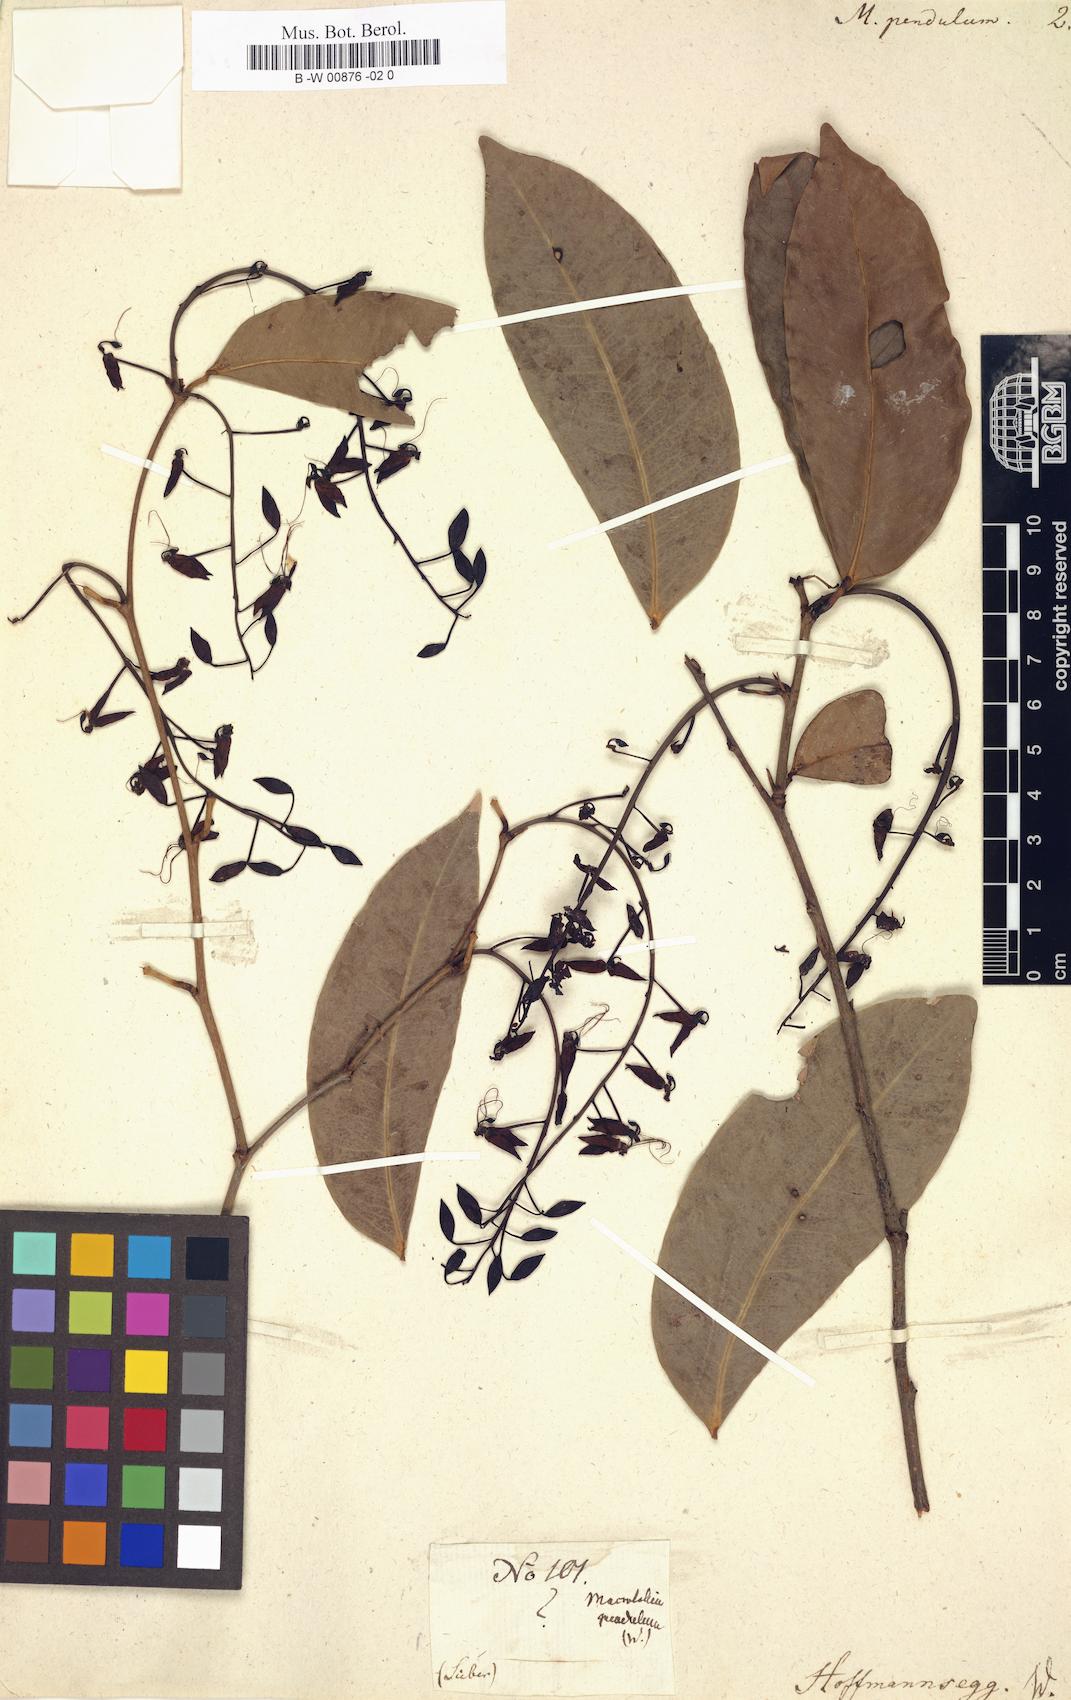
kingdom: Plantae
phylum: Tracheophyta
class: Magnoliopsida
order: Fabales
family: Fabaceae
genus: Macrolobium
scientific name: Macrolobium pendulum
